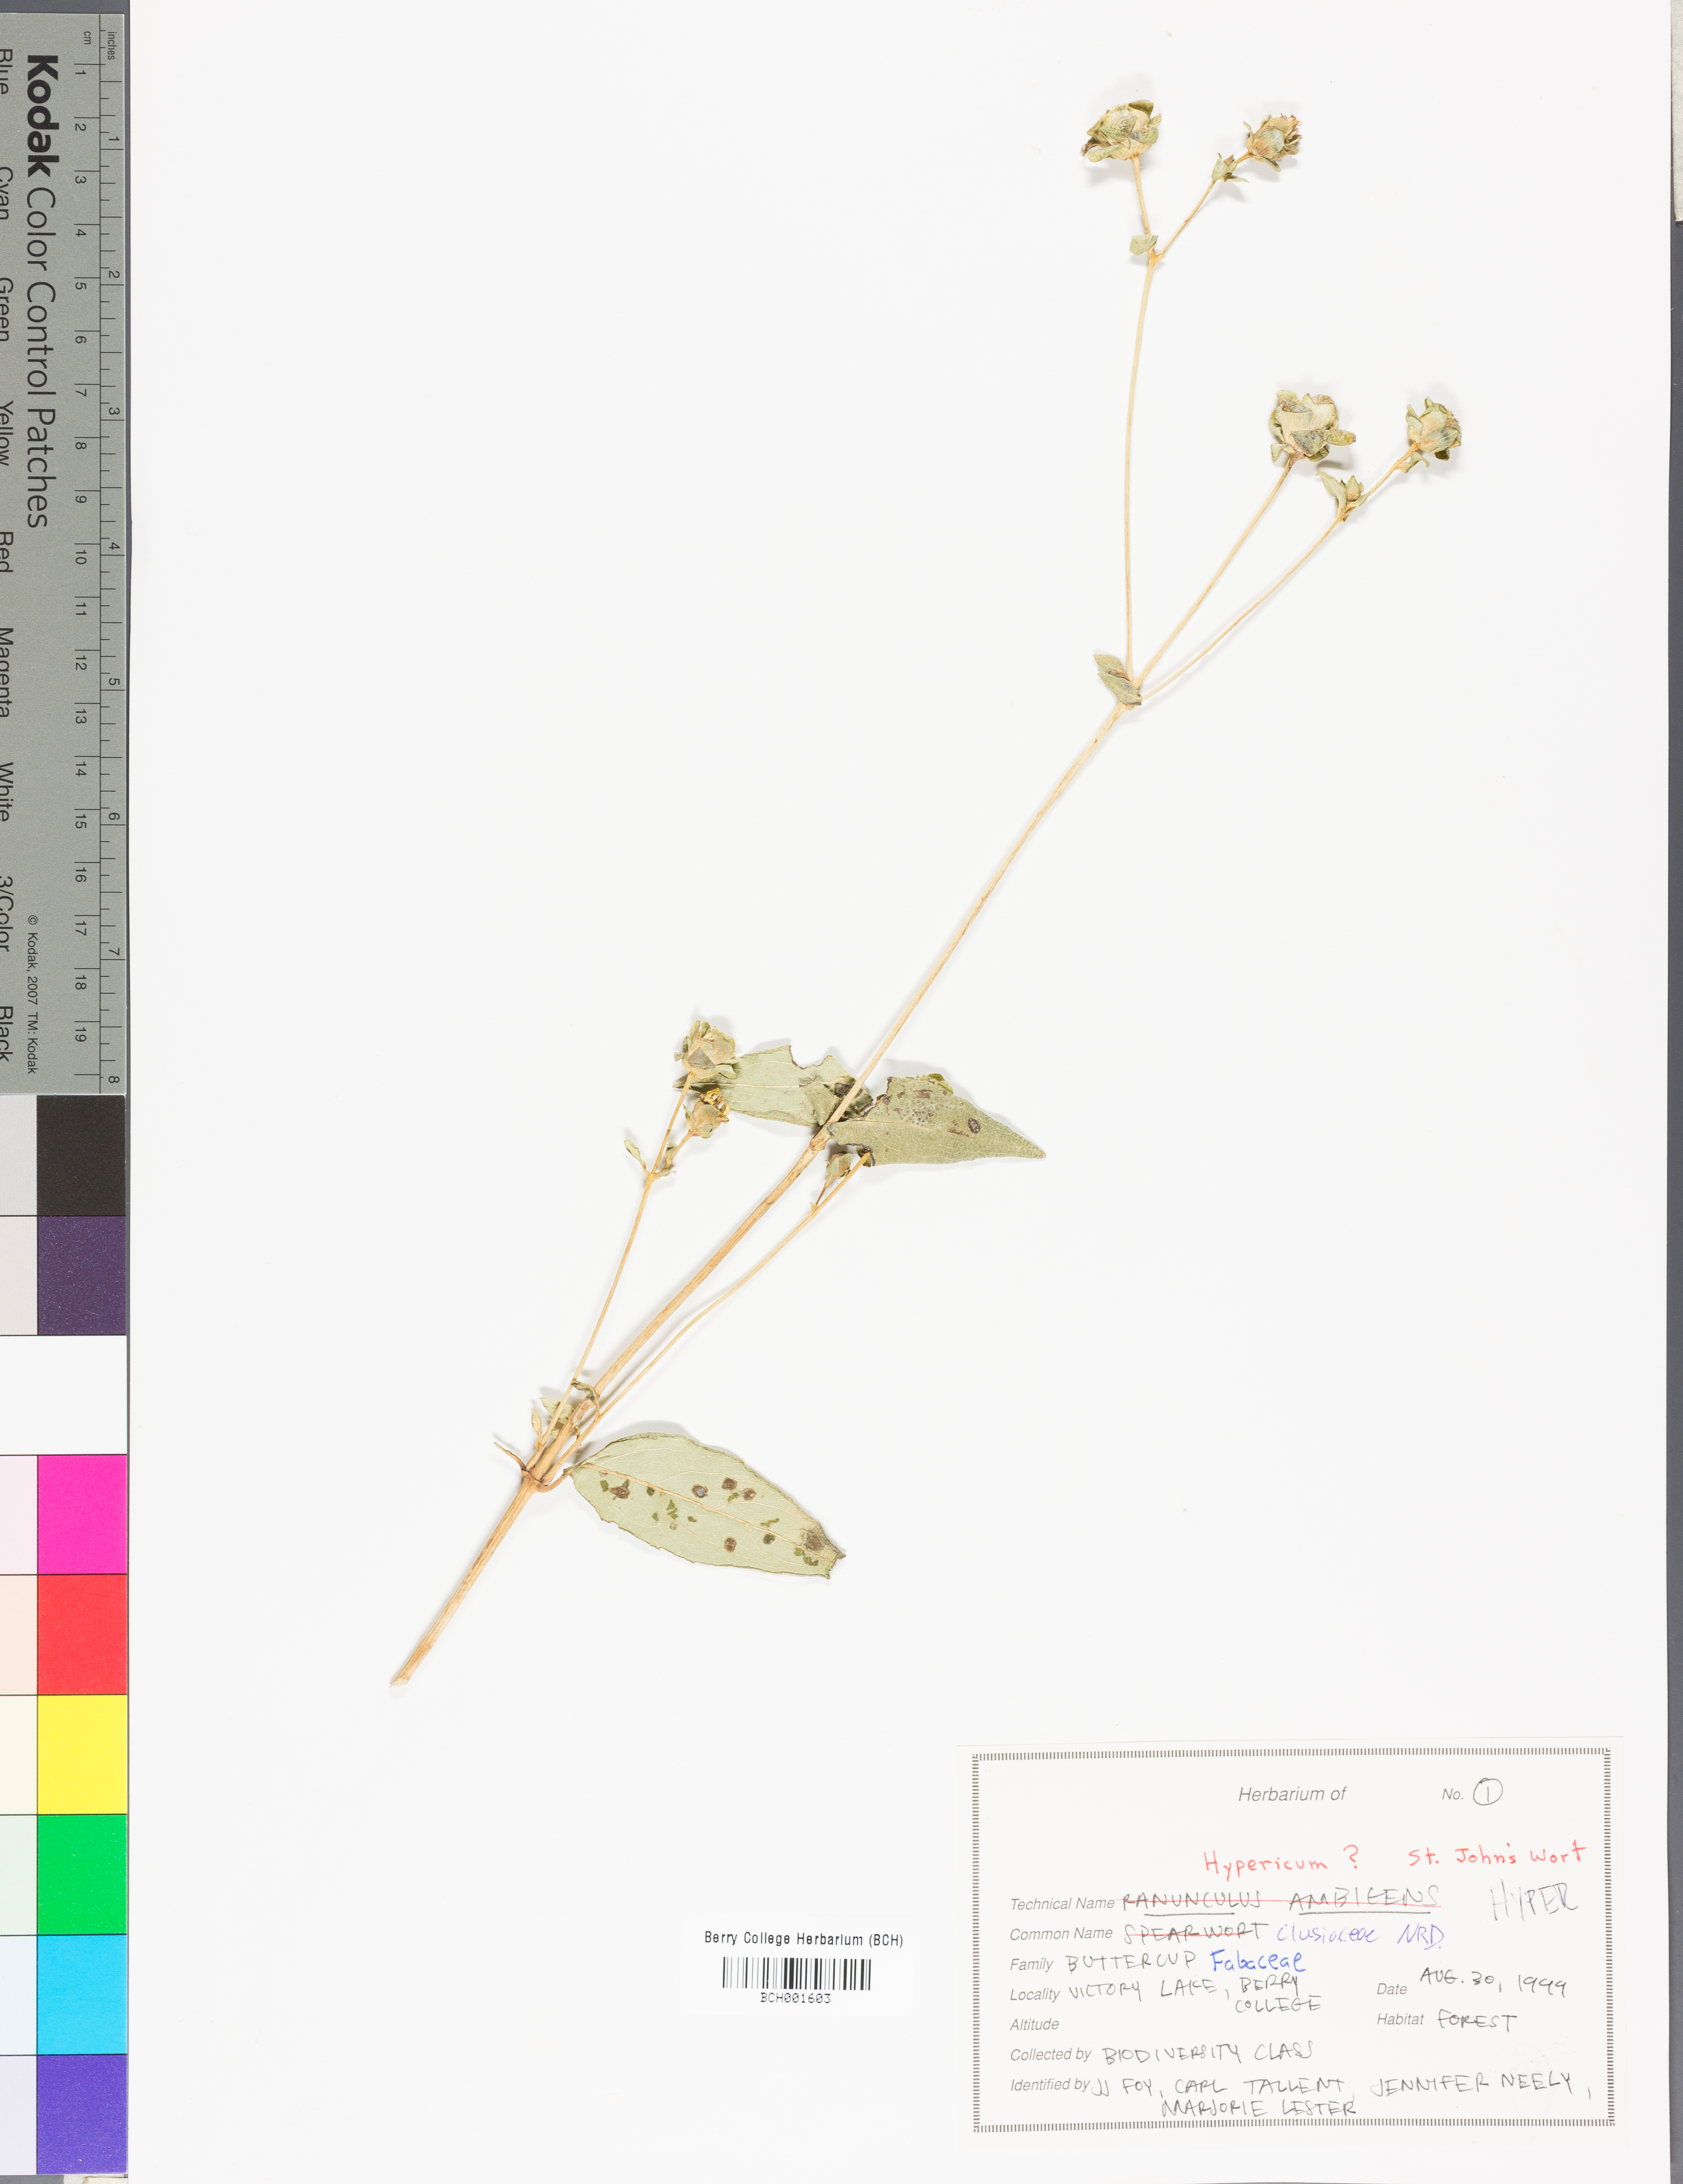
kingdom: Plantae
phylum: Tracheophyta
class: Magnoliopsida
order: Malpighiales
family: Hypericaceae
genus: Hypericum
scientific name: Hypericum
